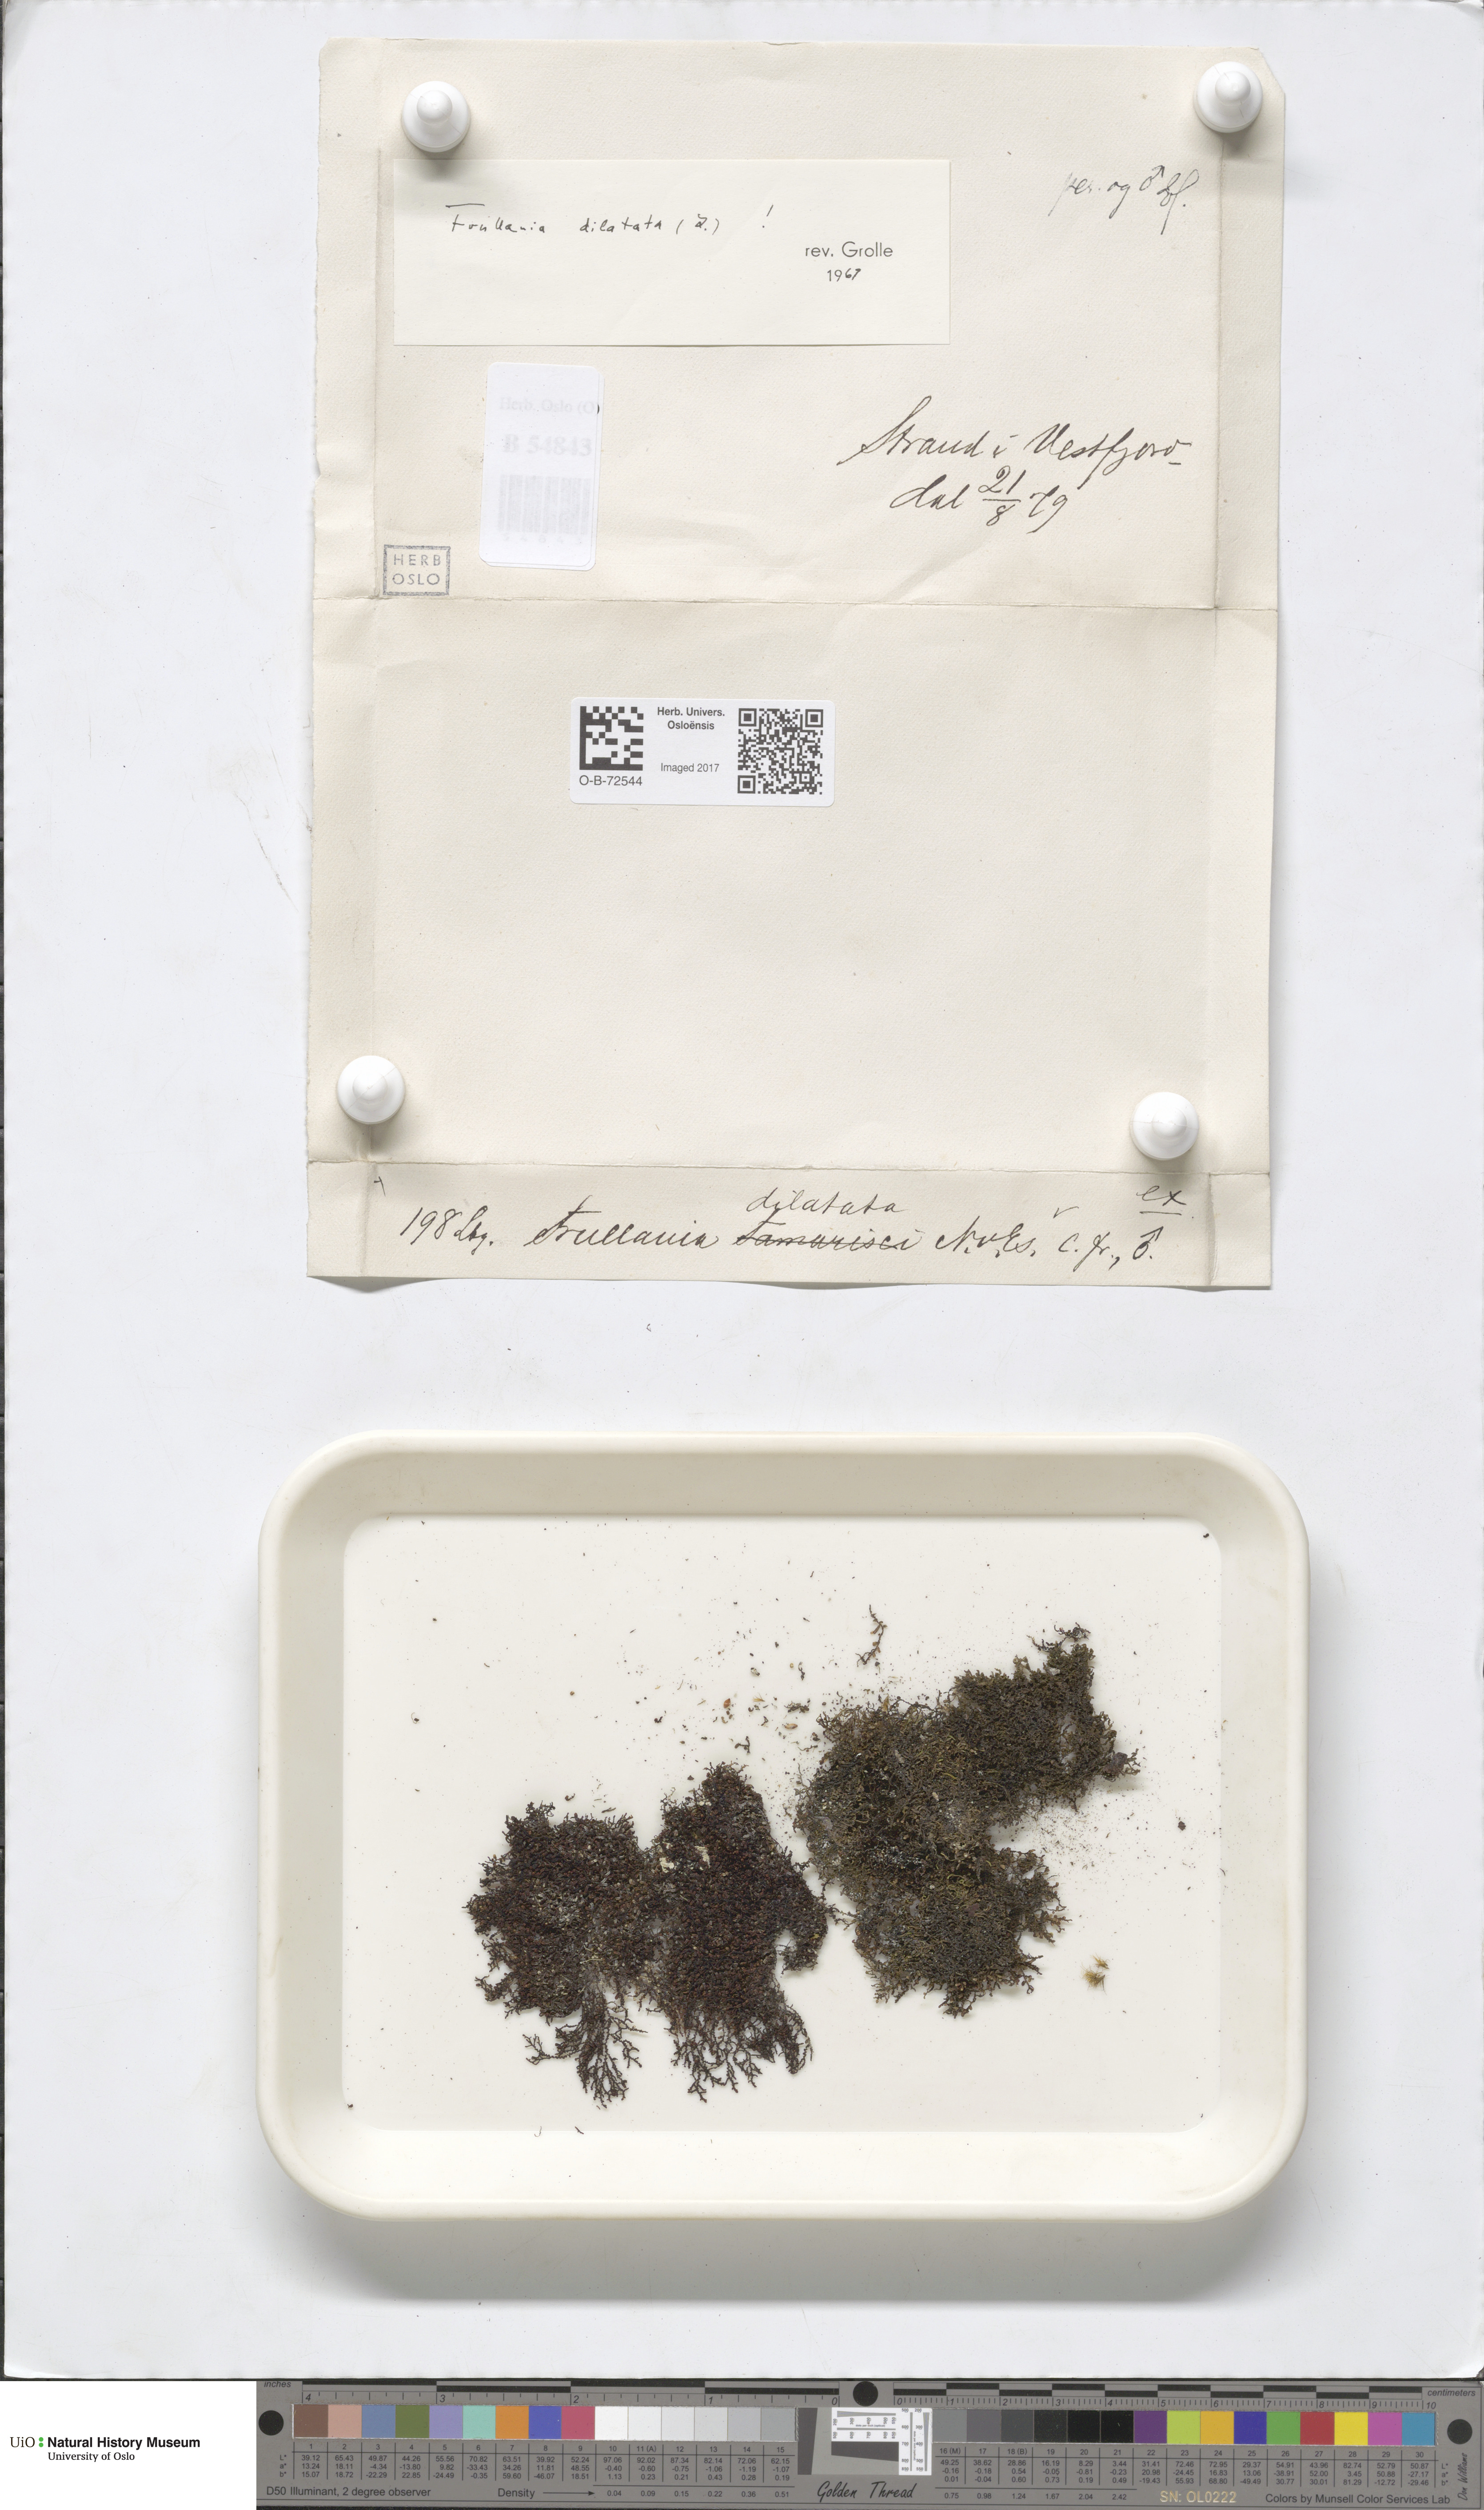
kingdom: Plantae
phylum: Marchantiophyta
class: Jungermanniopsida
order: Porellales
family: Frullaniaceae
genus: Frullania
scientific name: Frullania dilatata
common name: Dilated scalewort
